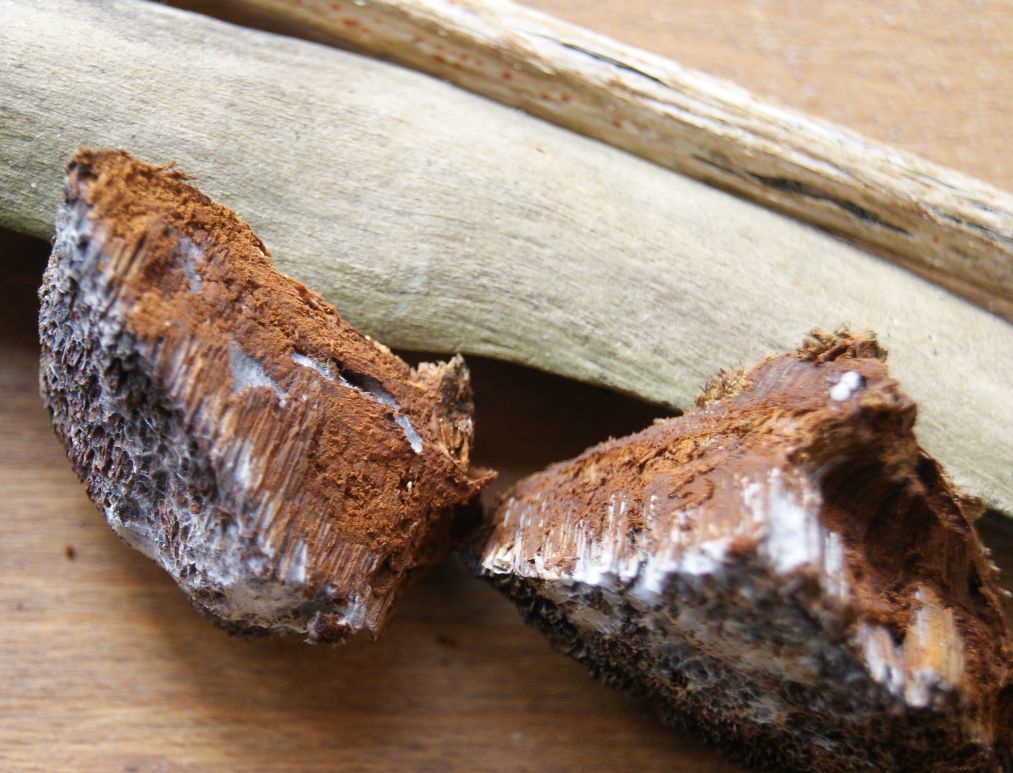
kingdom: Fungi
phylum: Basidiomycota
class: Agaricomycetes
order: Hymenochaetales
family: Hymenochaetaceae
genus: Inocutis
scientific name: Inocutis rheades
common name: ræve-spejlporesvamp
